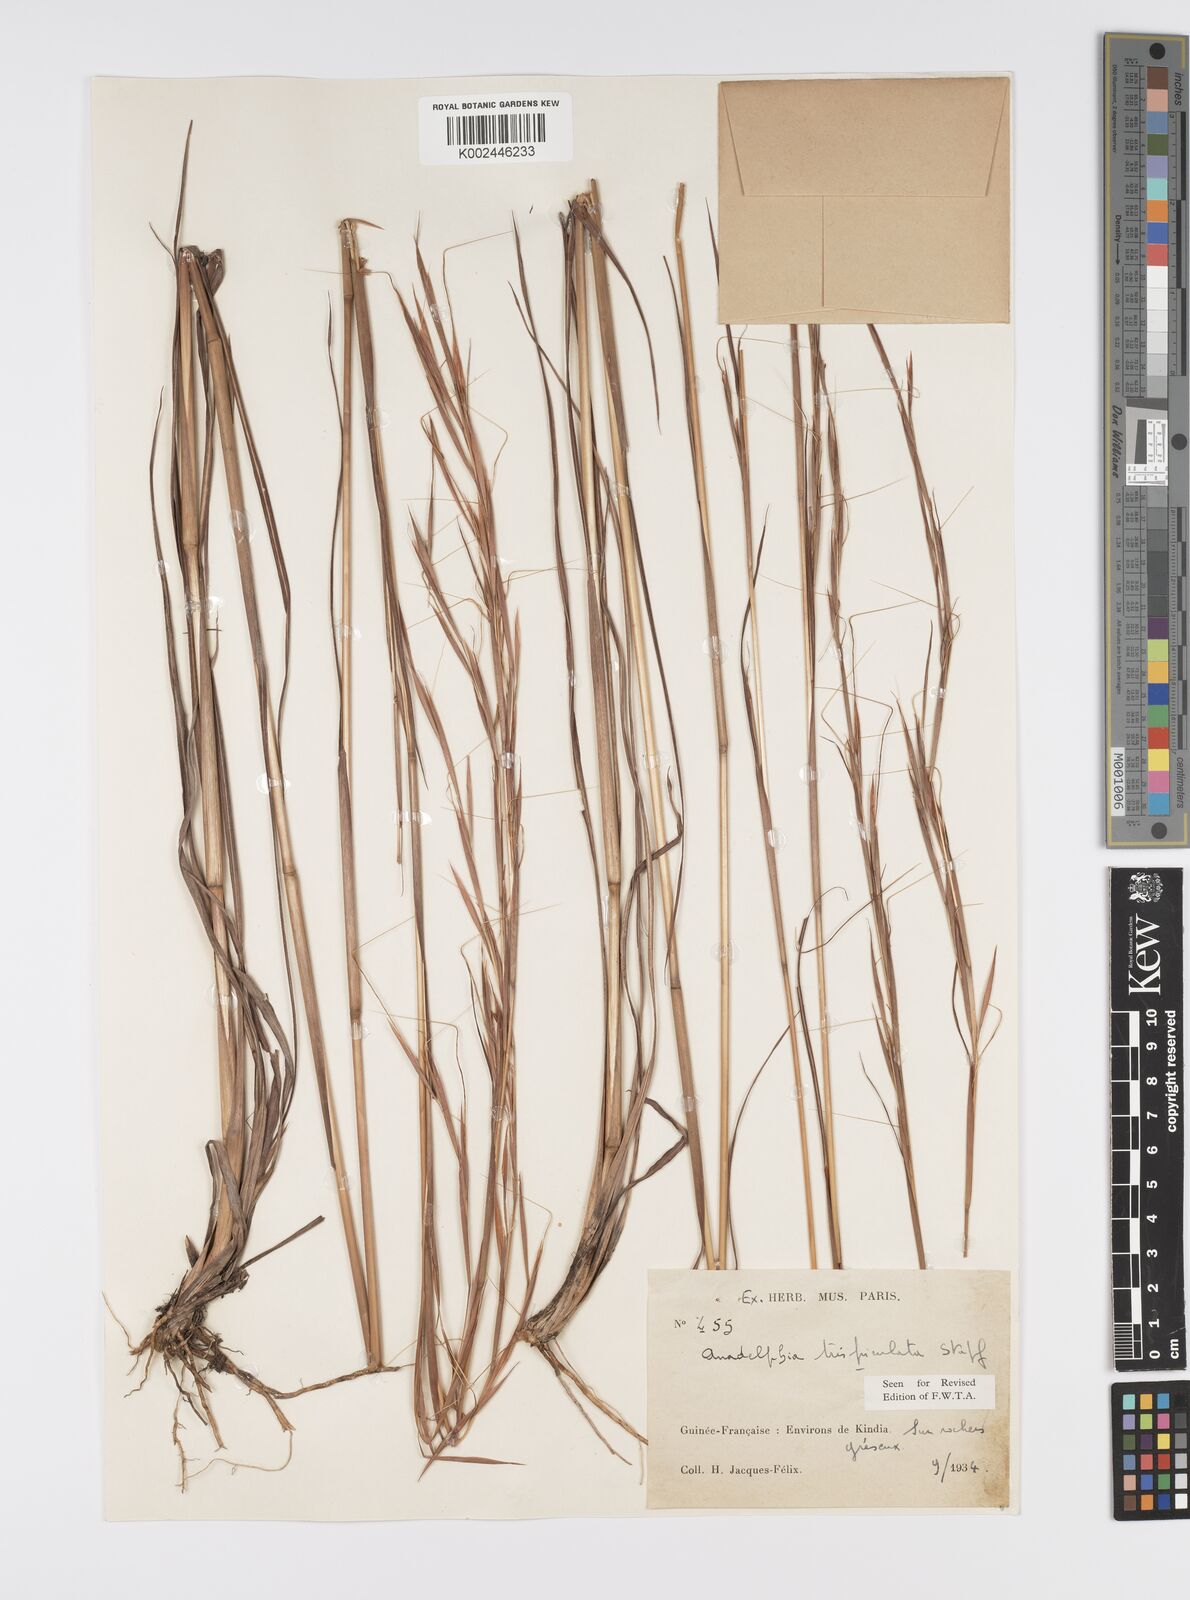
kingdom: Plantae
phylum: Tracheophyta
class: Liliopsida
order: Poales
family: Poaceae
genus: Anadelphia
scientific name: Anadelphia trispiculata
